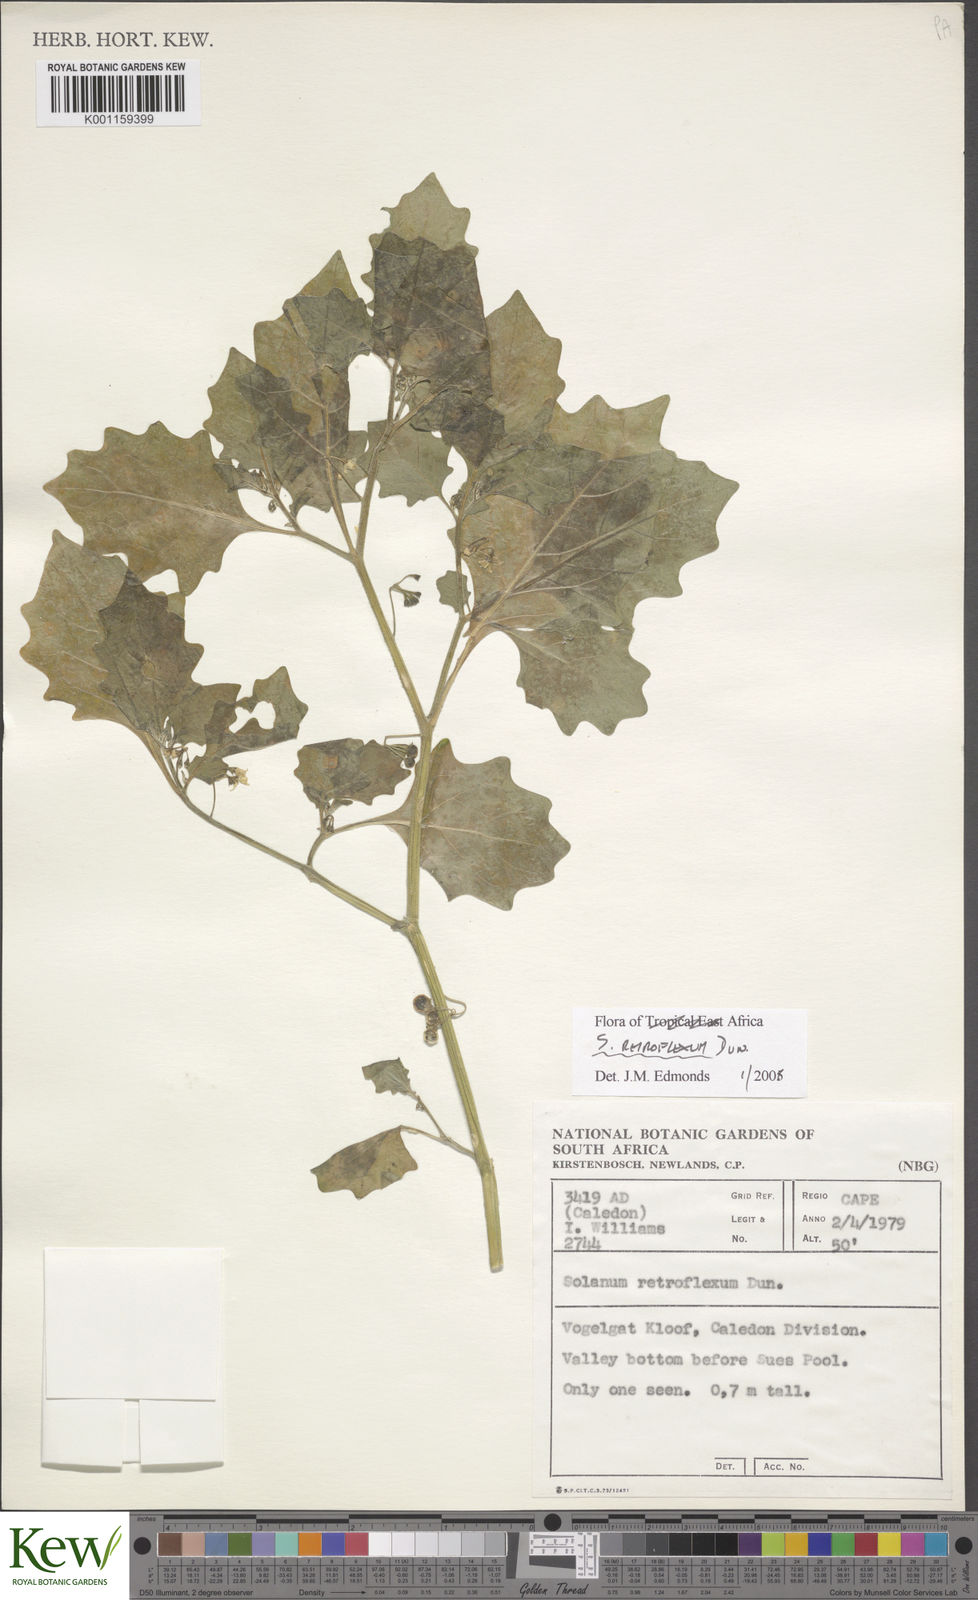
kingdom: Plantae
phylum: Tracheophyta
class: Magnoliopsida
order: Solanales
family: Solanaceae
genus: Solanum
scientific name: Solanum retroflexum
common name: Wonderberry
